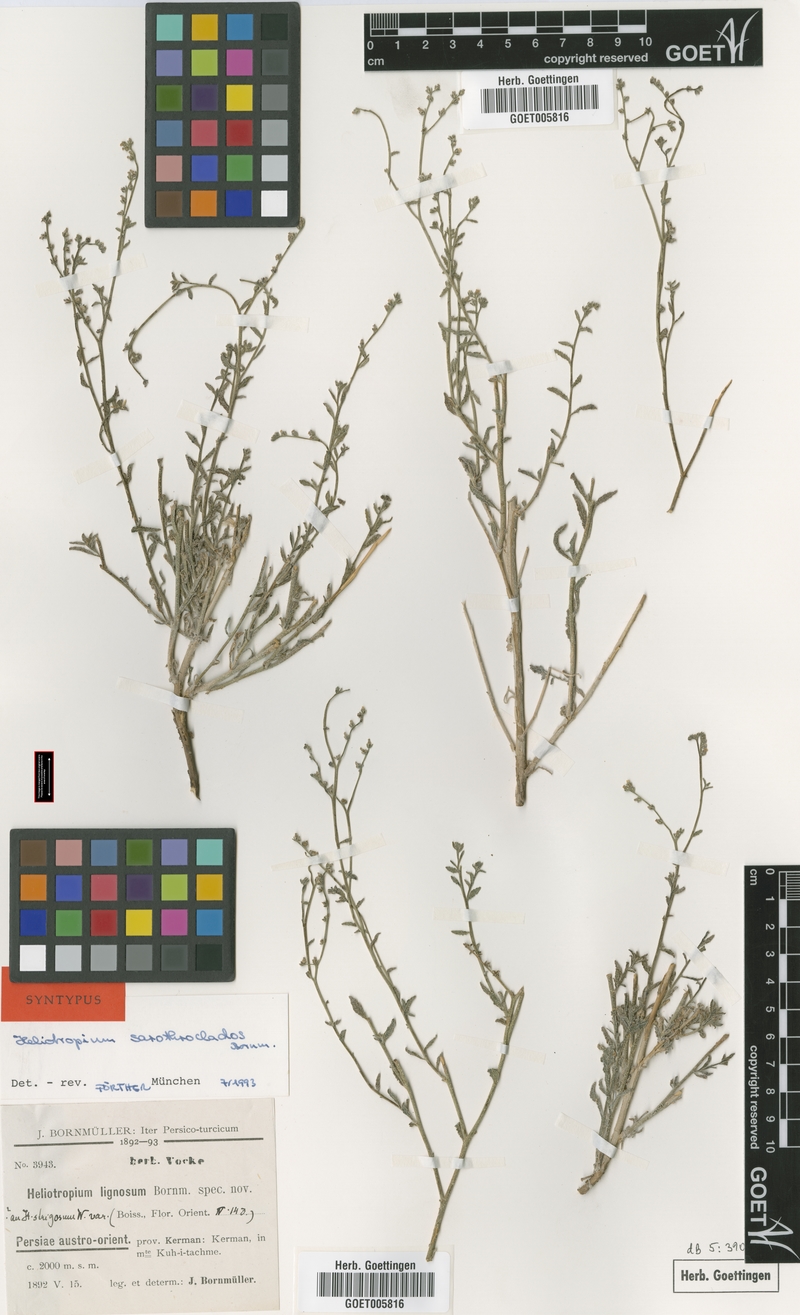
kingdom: Plantae
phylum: Tracheophyta
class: Magnoliopsida
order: Boraginales
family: Heliotropiaceae
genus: Heliotropium
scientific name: Heliotropium ramosissimum
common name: Wavy heliotrope
